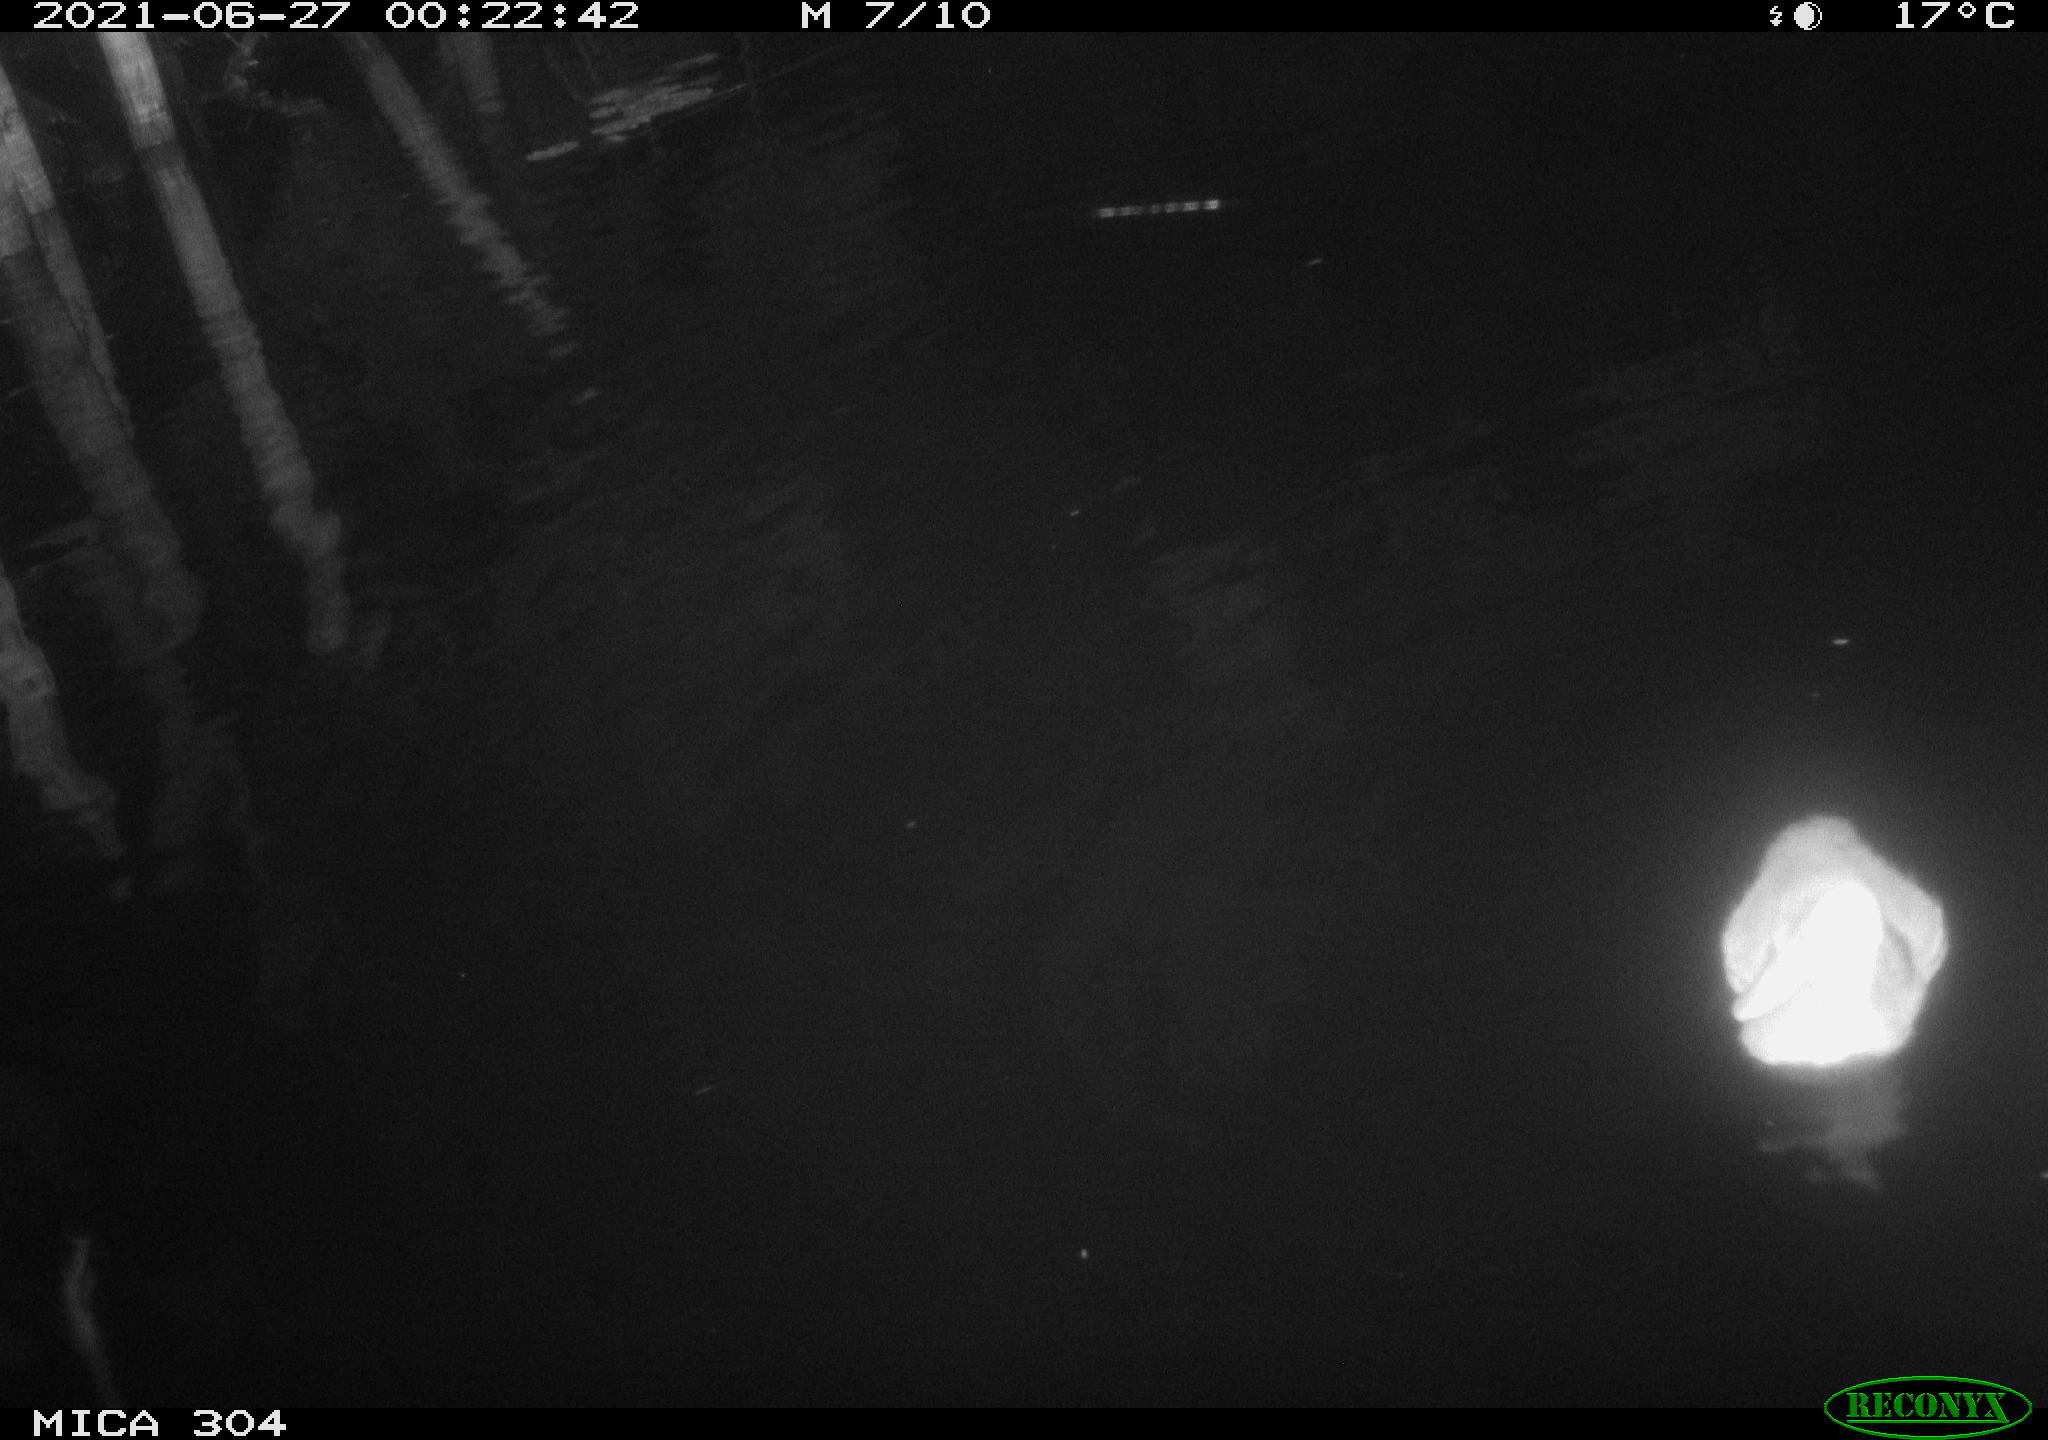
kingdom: Animalia
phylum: Chordata
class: Aves
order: Anseriformes
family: Anatidae
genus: Anas
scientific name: Anas platyrhynchos
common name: Mallard
